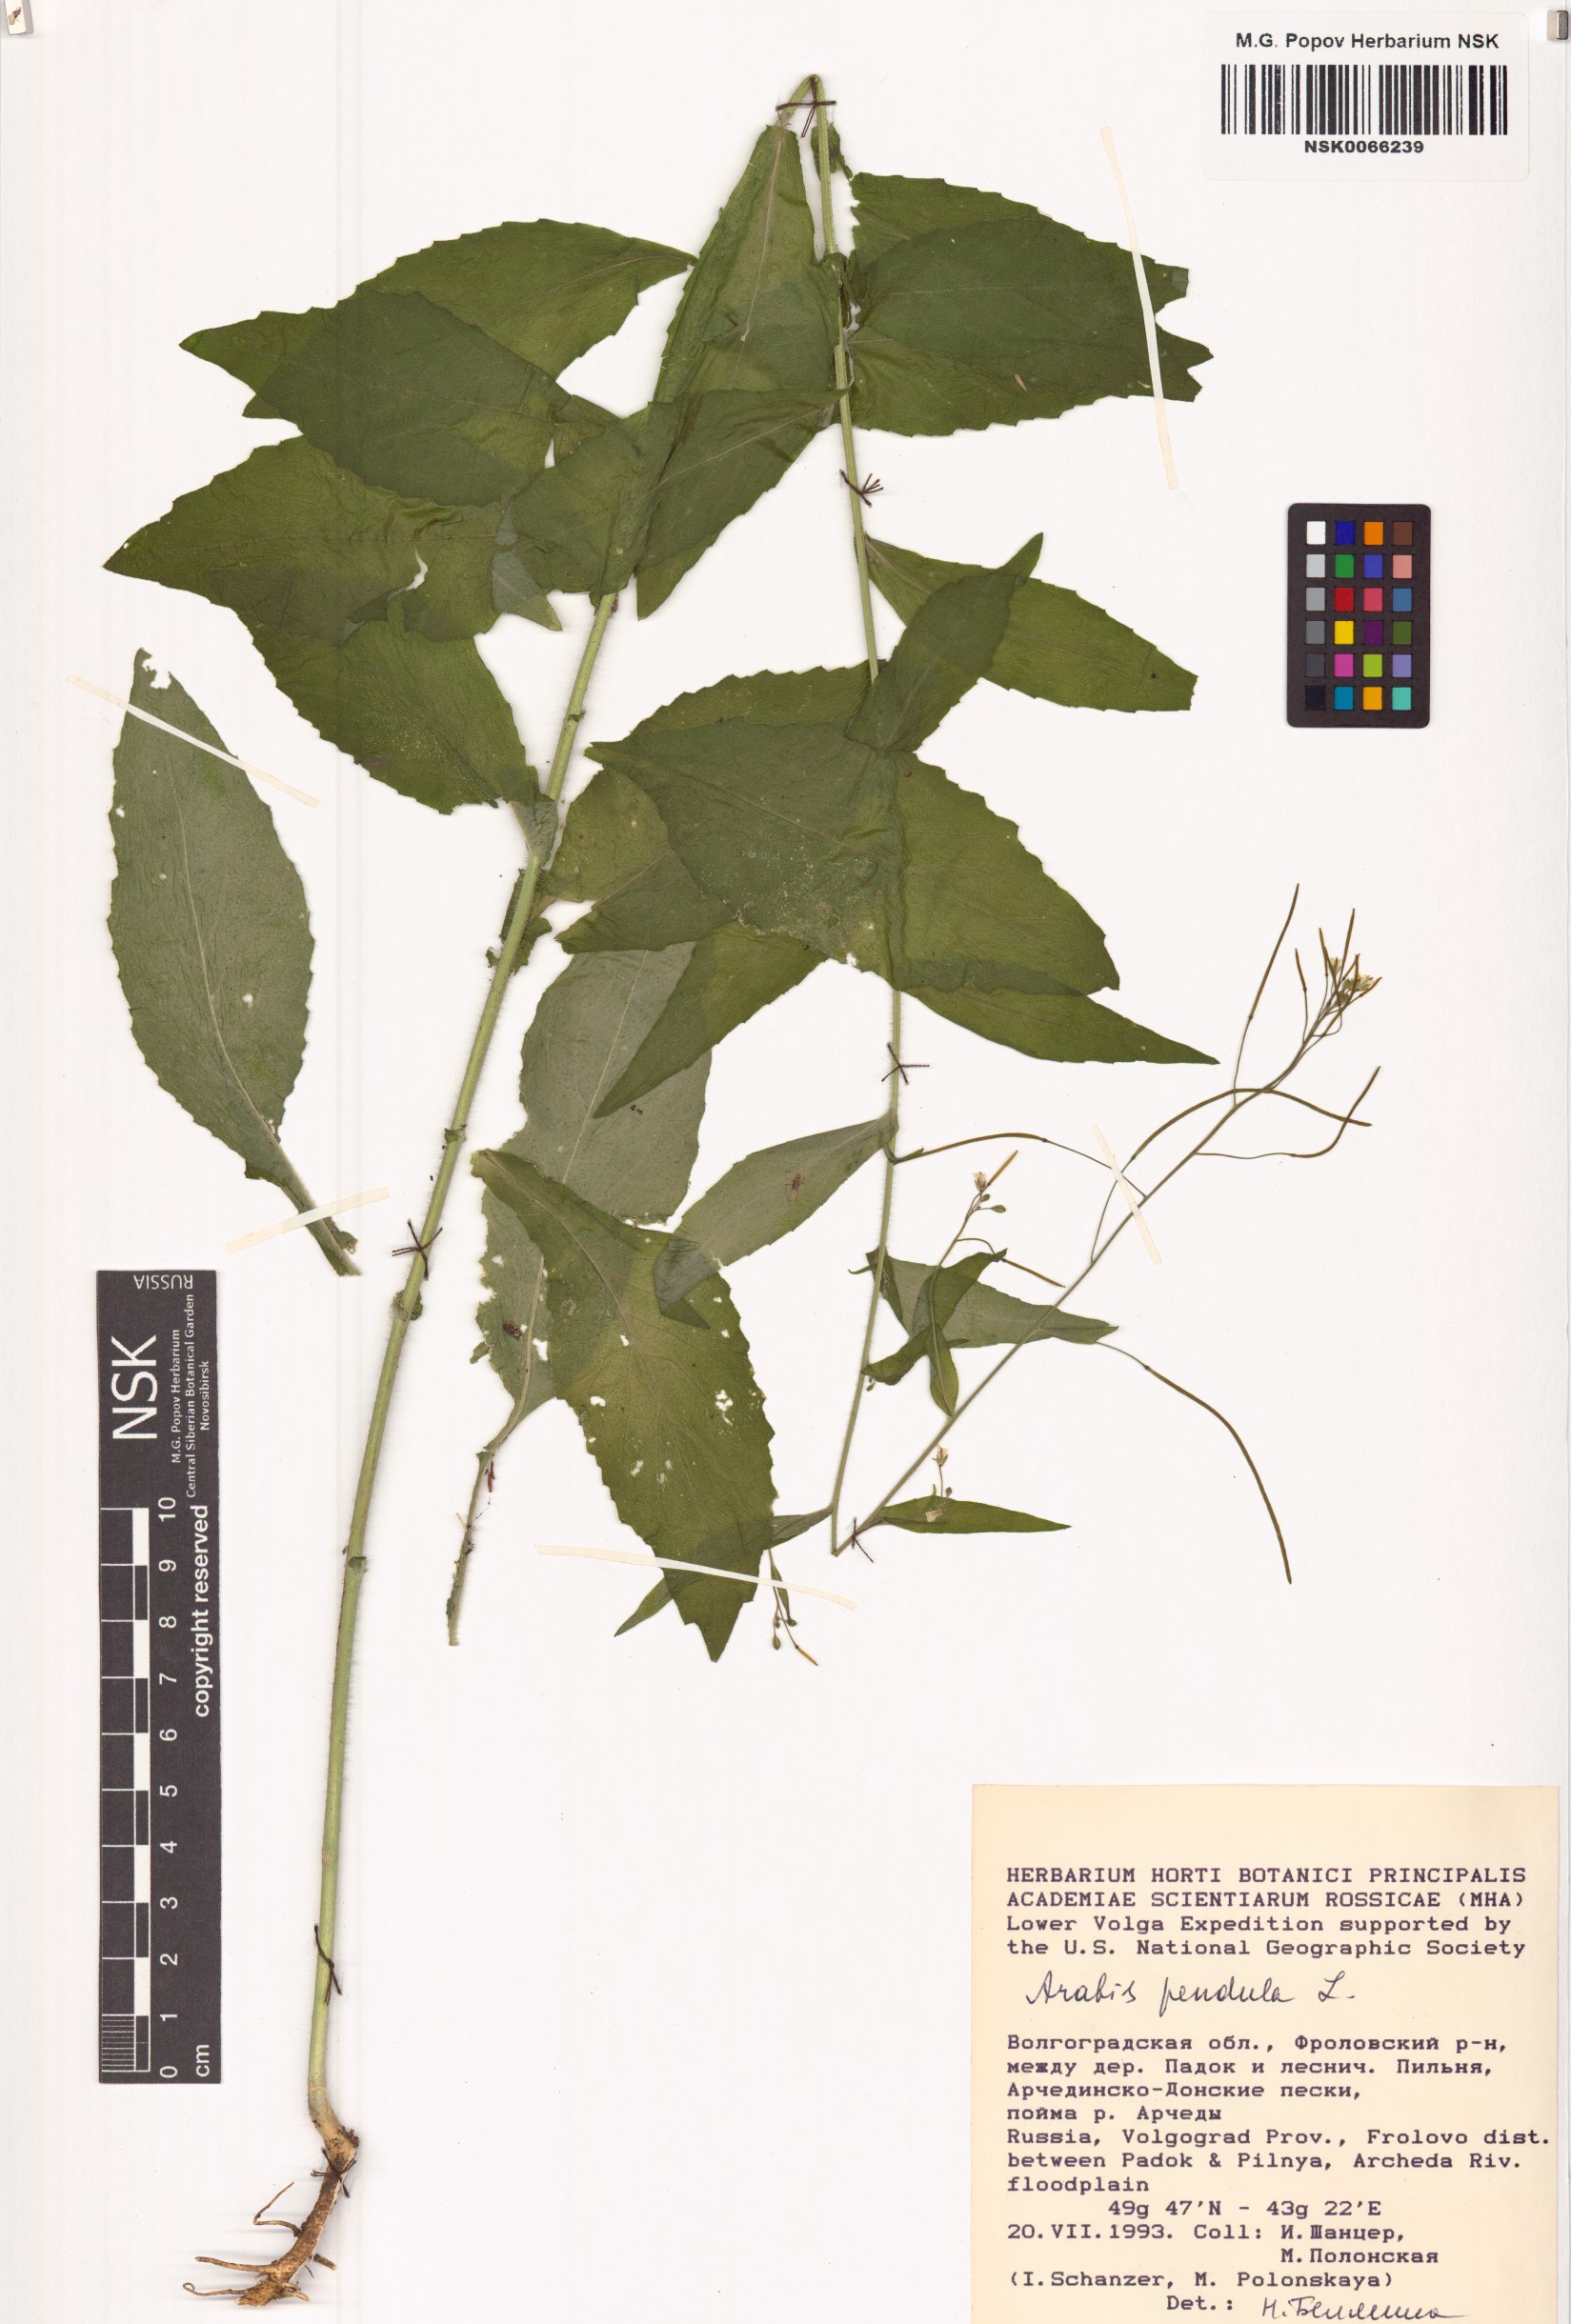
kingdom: Plantae
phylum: Tracheophyta
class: Magnoliopsida
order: Brassicales
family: Brassicaceae
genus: Catolobus
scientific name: Catolobus pendulus
